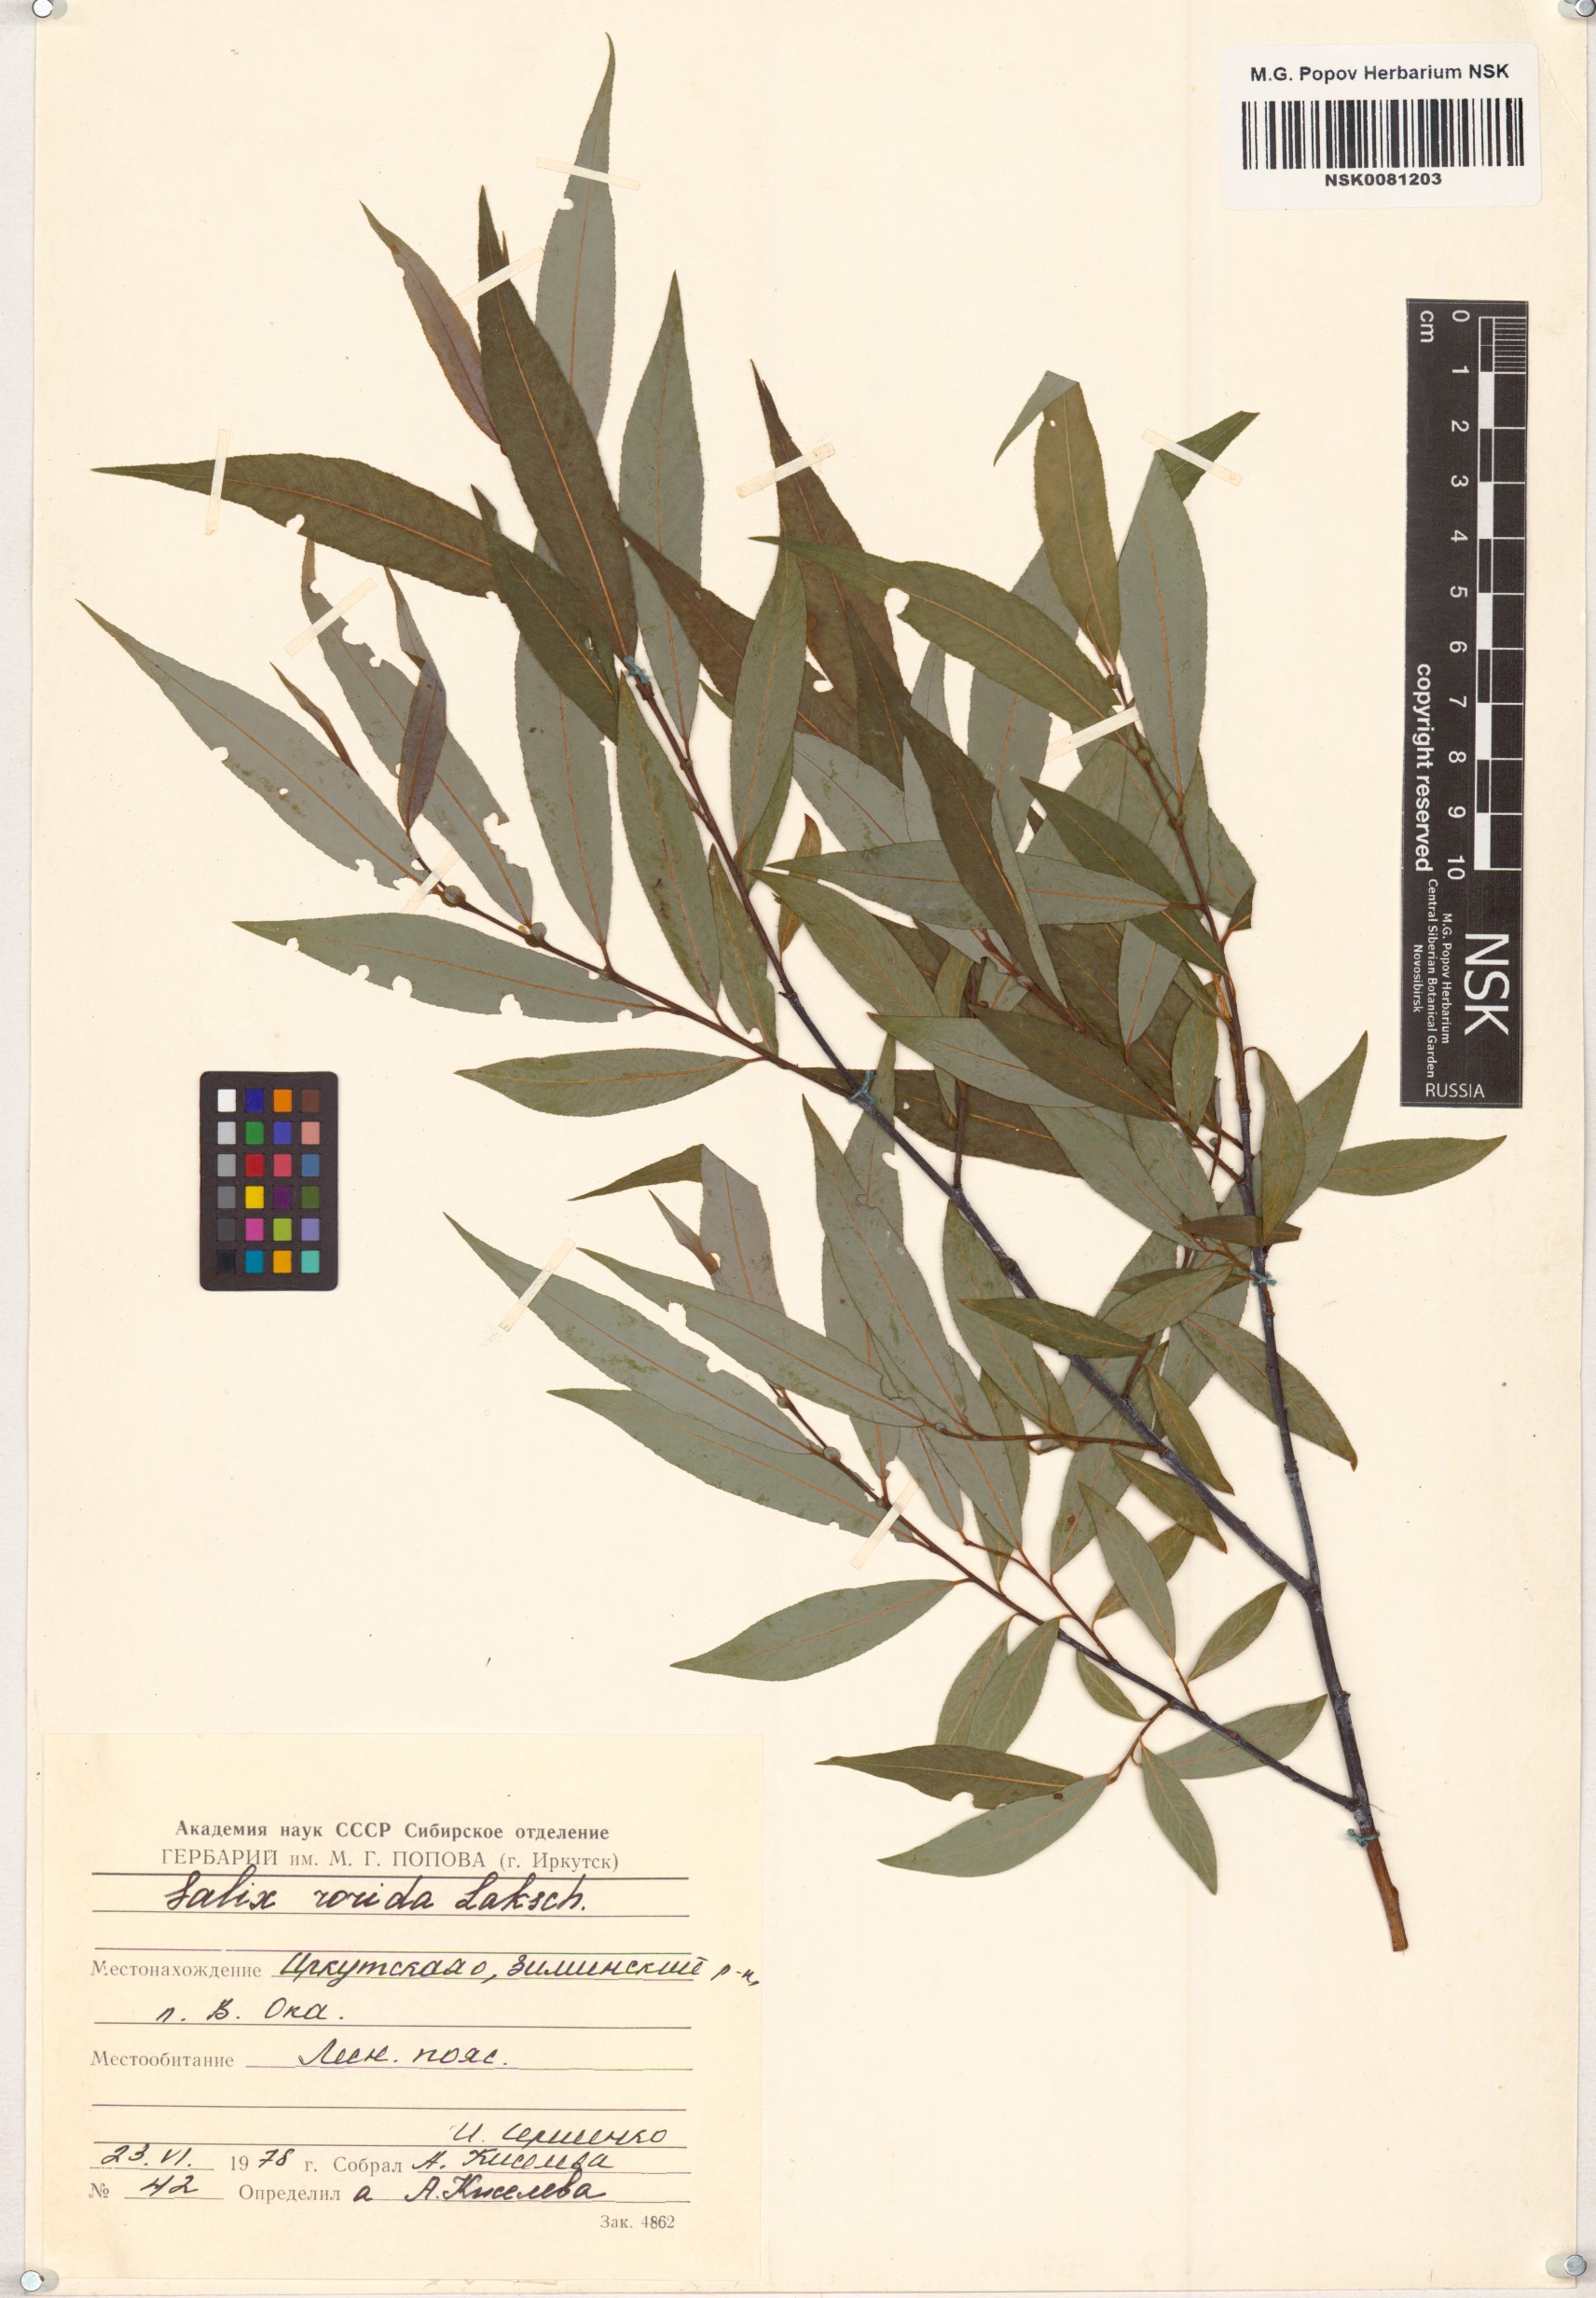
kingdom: Plantae
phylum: Tracheophyta
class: Magnoliopsida
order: Malpighiales
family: Salicaceae
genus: Salix
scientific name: Salix rorida
